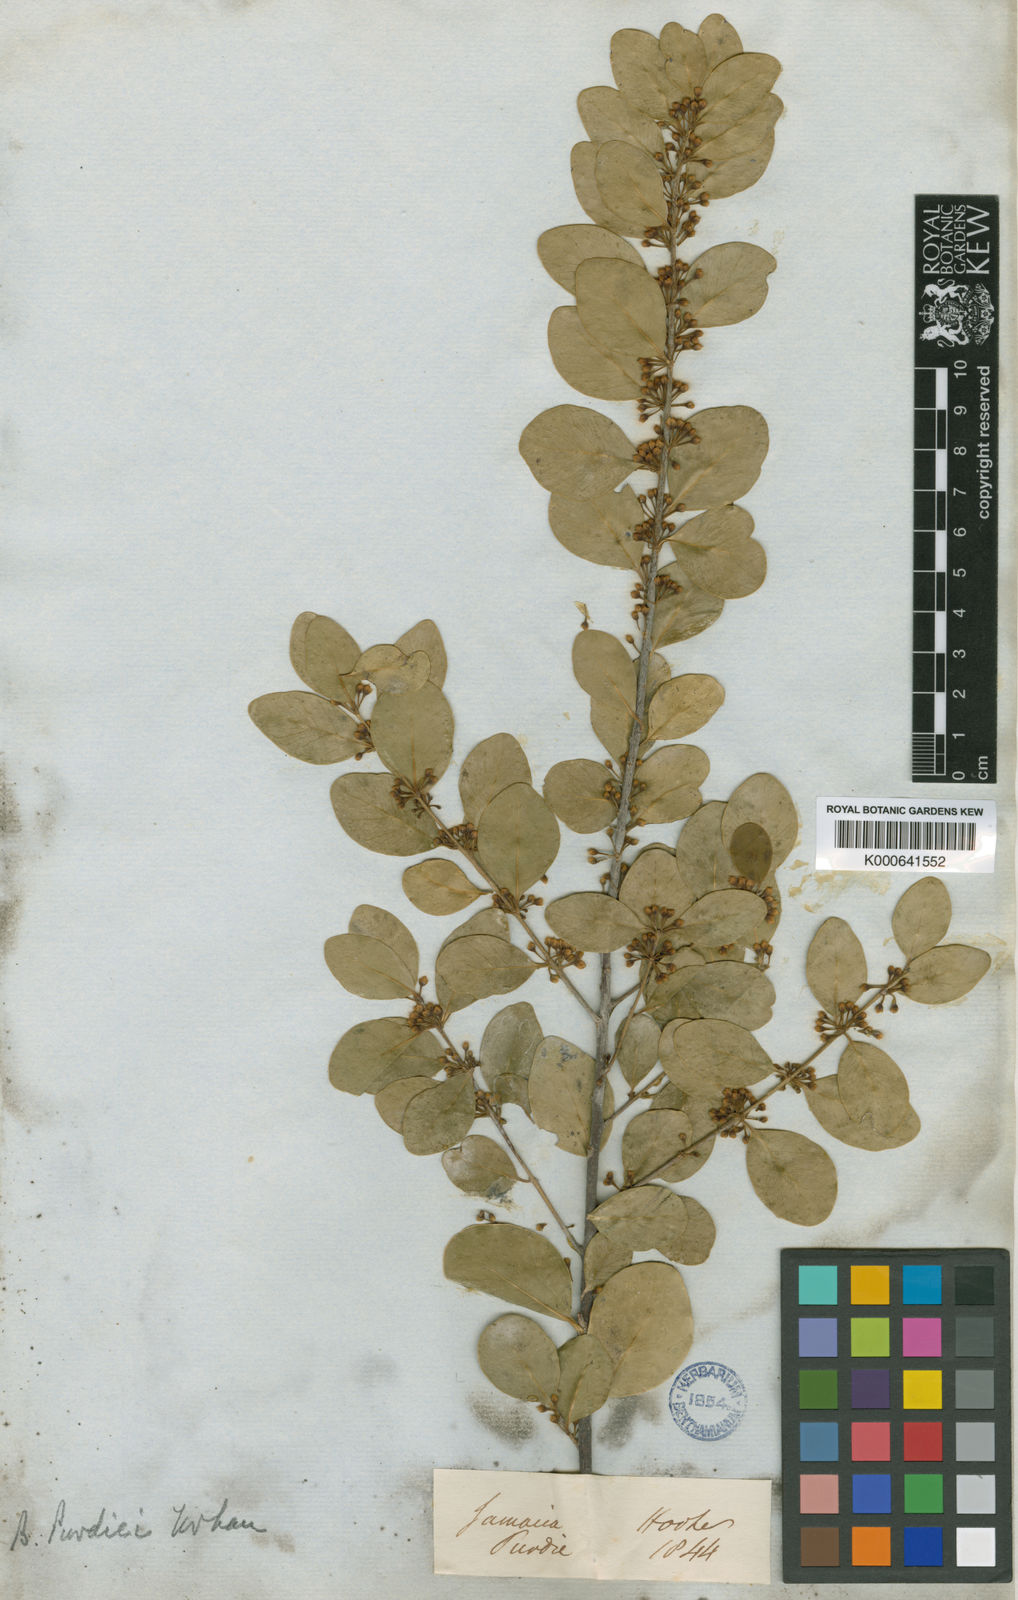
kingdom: Plantae
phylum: Tracheophyta
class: Magnoliopsida
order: Ericales
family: Sapotaceae
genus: Sideroxylon
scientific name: Sideroxylon rotundifolium
